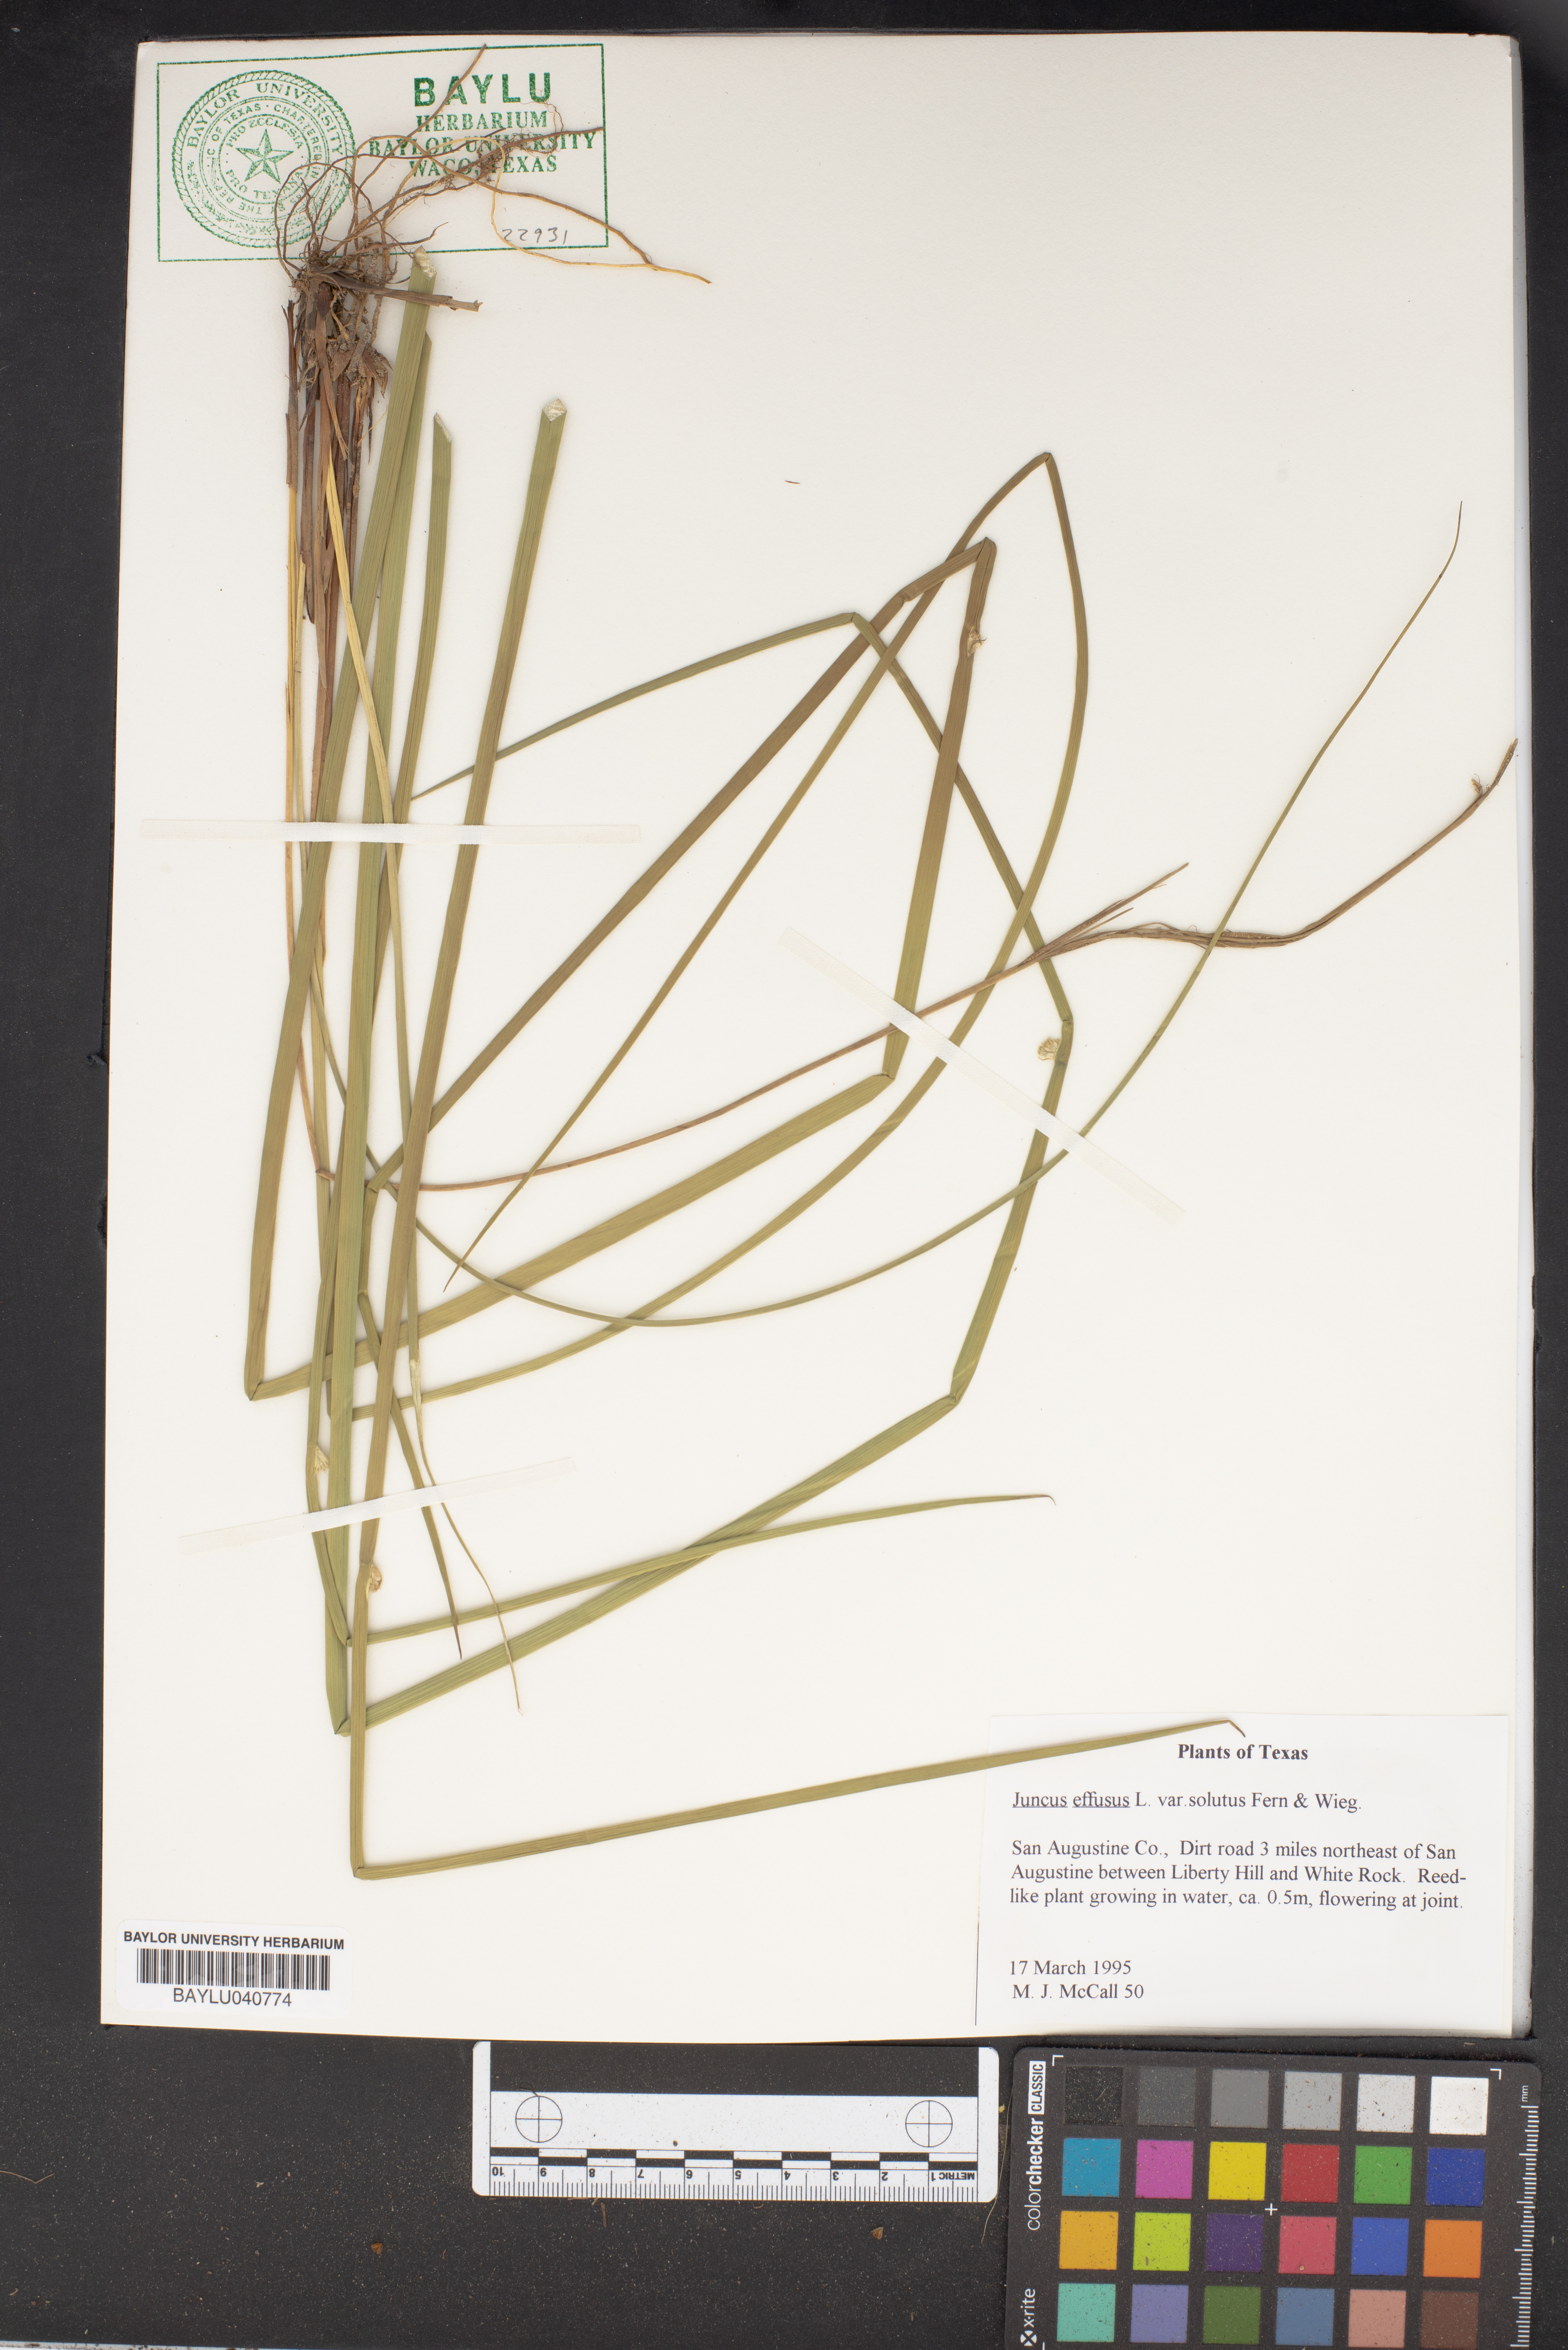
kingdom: Plantae
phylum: Tracheophyta
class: Liliopsida
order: Poales
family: Juncaceae
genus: Juncus
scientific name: Juncus effusus
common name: Soft rush
